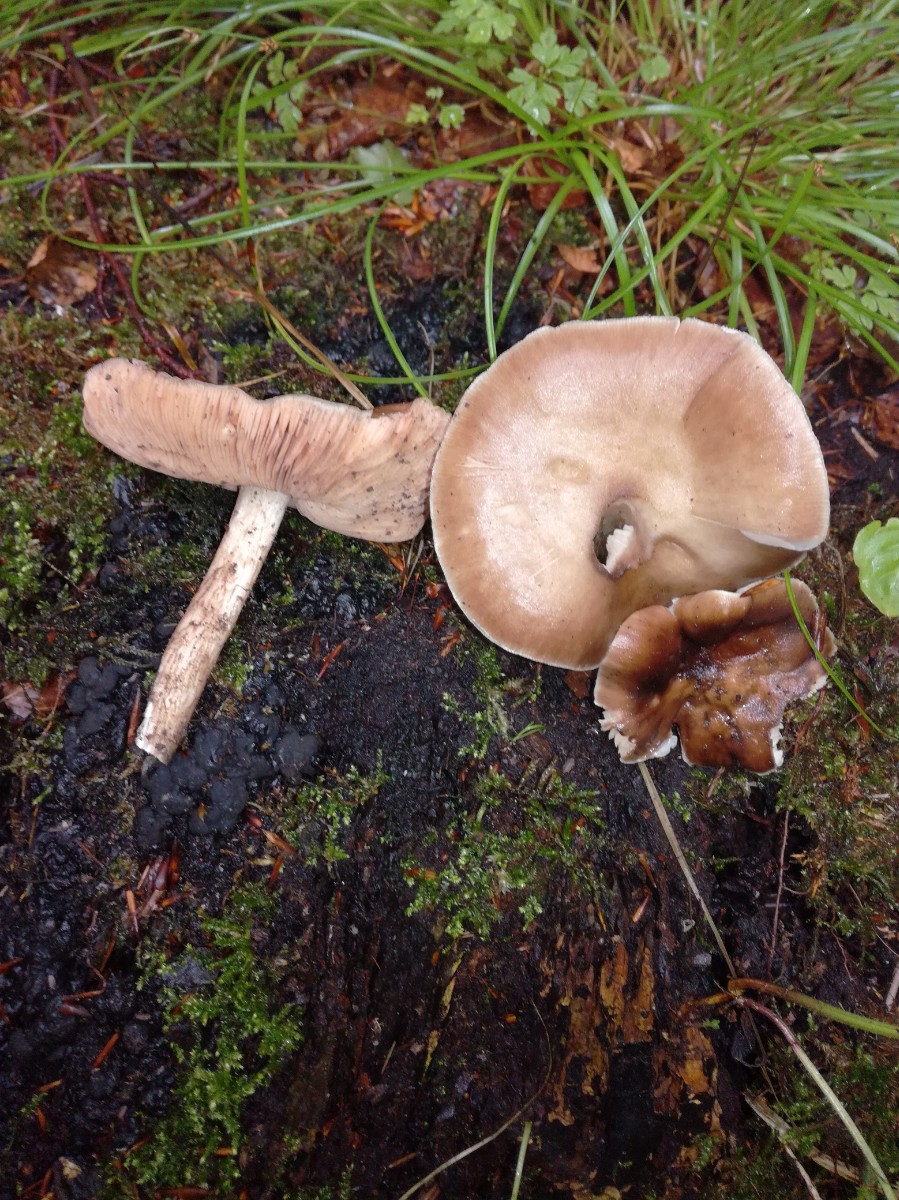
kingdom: Fungi
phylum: Basidiomycota
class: Agaricomycetes
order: Agaricales
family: Pluteaceae
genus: Pluteus
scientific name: Pluteus cervinus
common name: sodfarvet skærmhat
